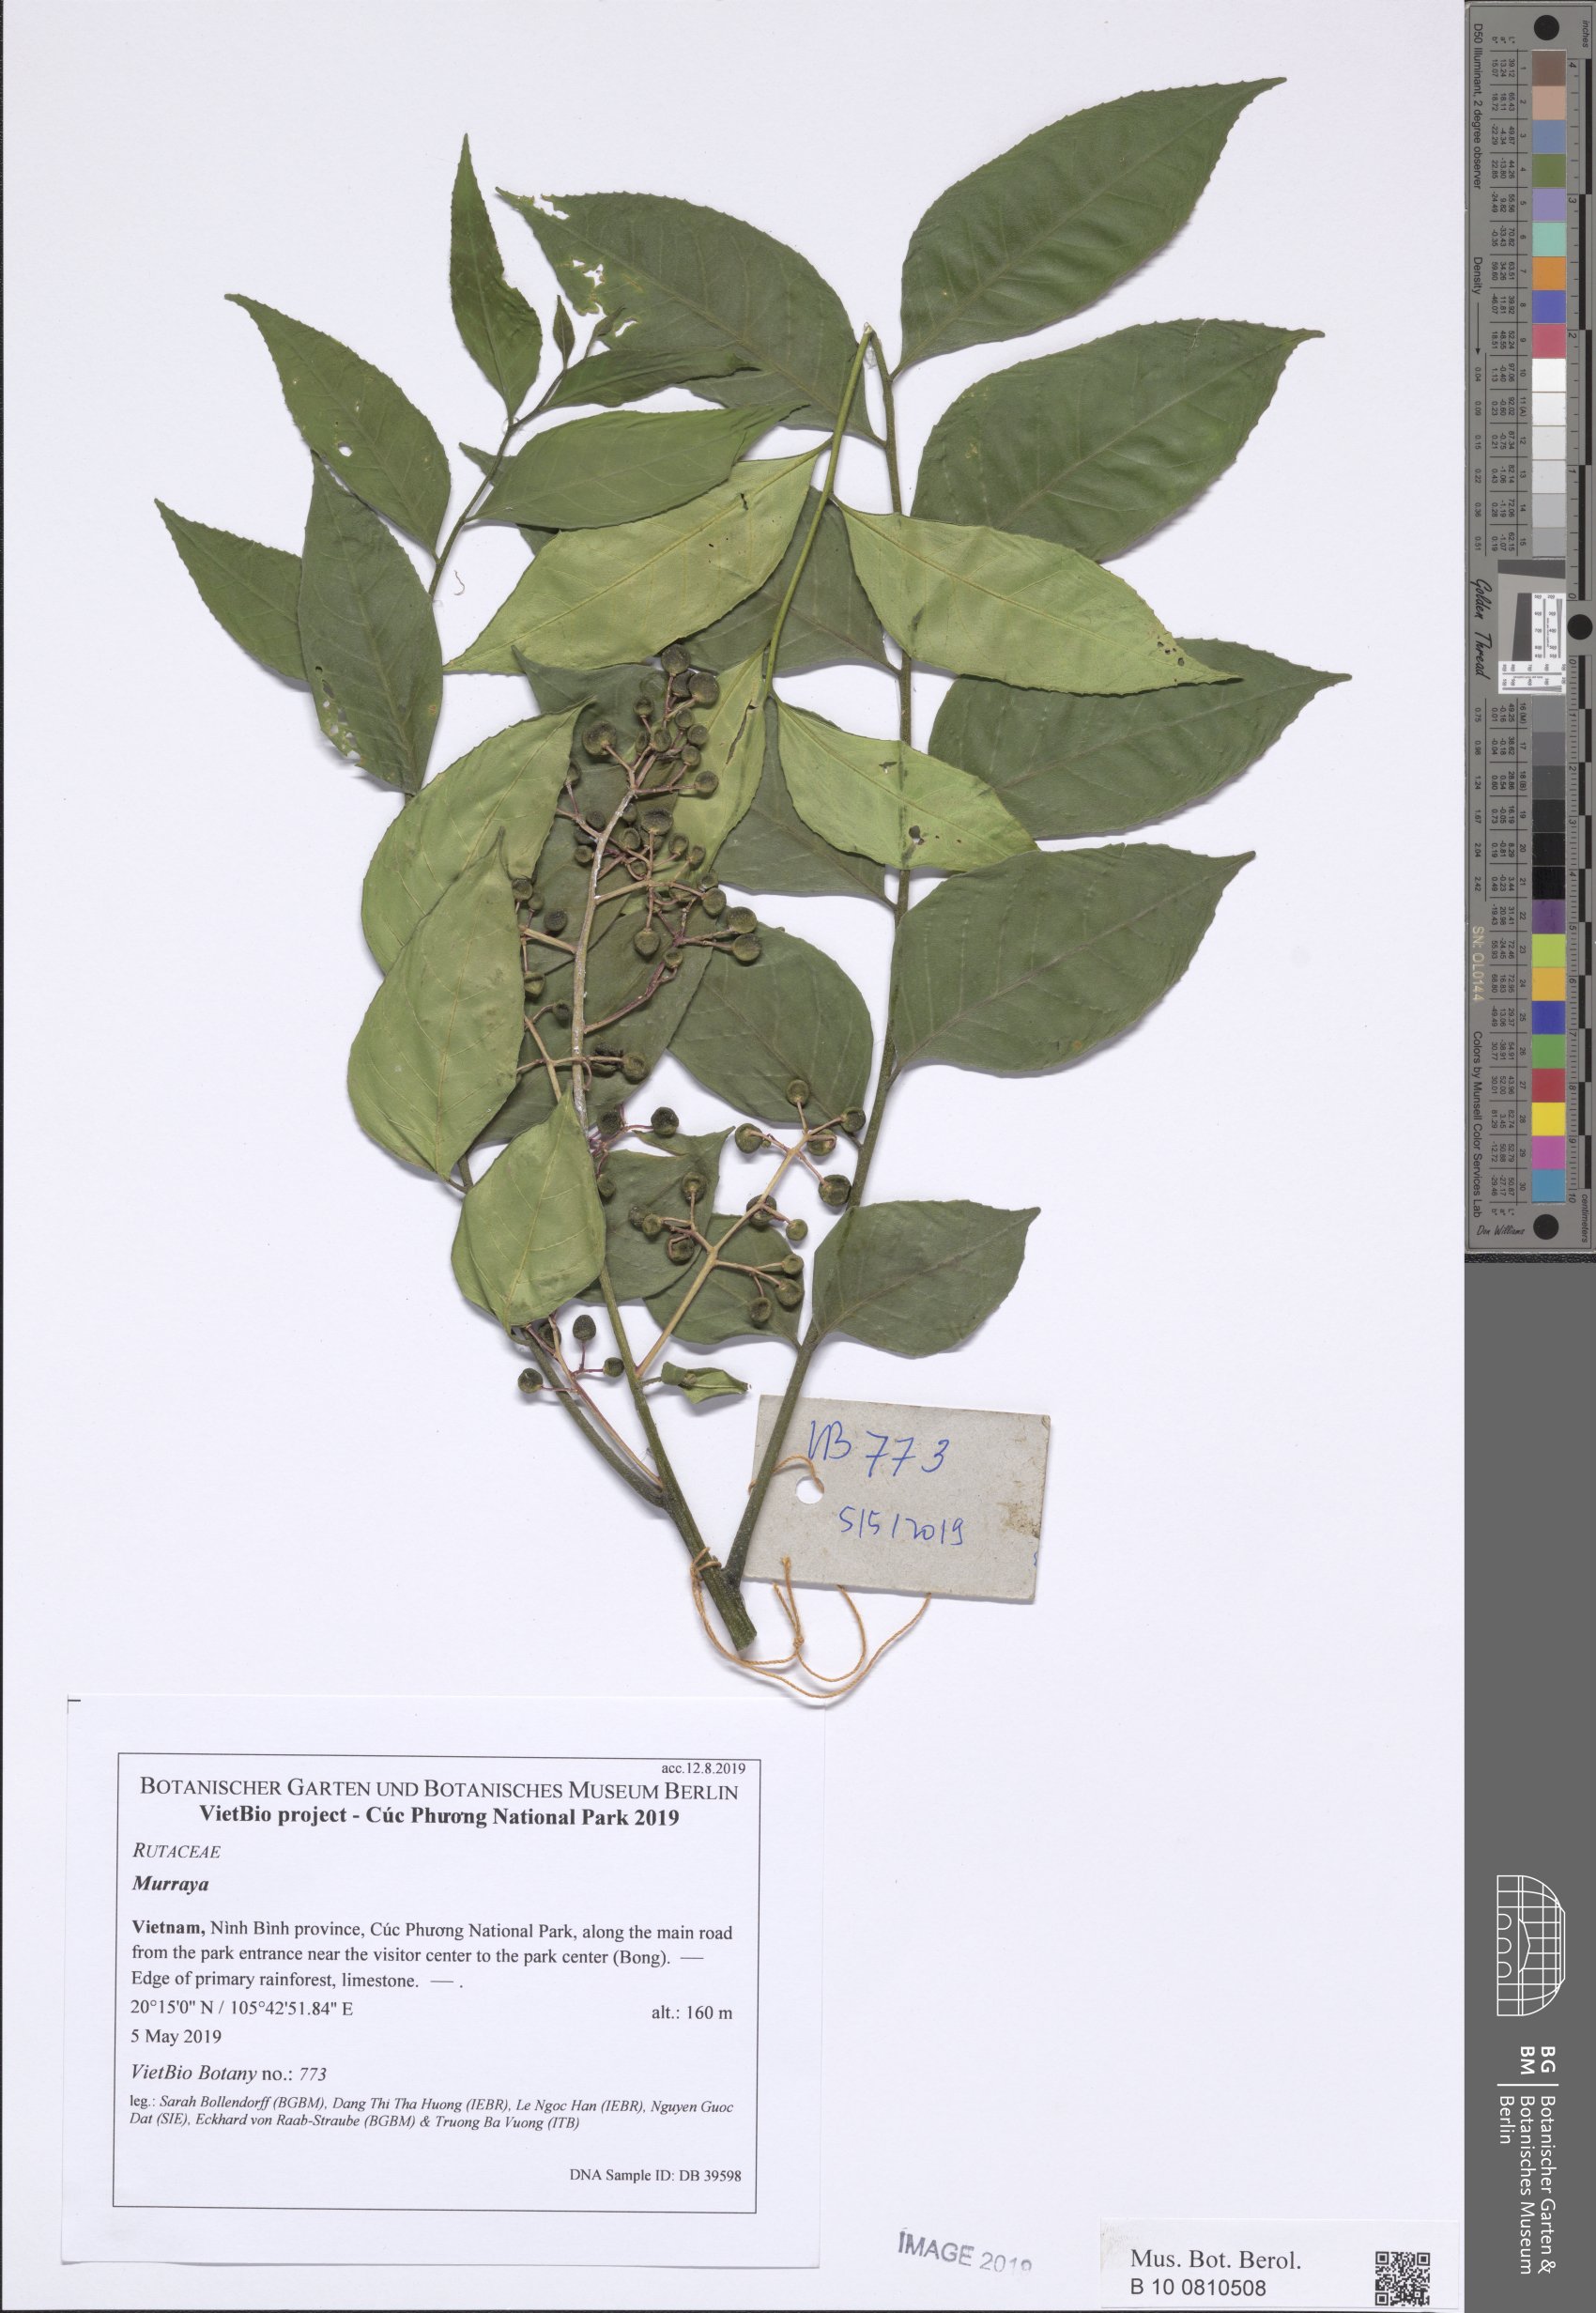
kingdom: Plantae
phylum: Tracheophyta
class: Magnoliopsida
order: Sapindales
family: Rutaceae
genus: Clausena
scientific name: Clausena lenis
